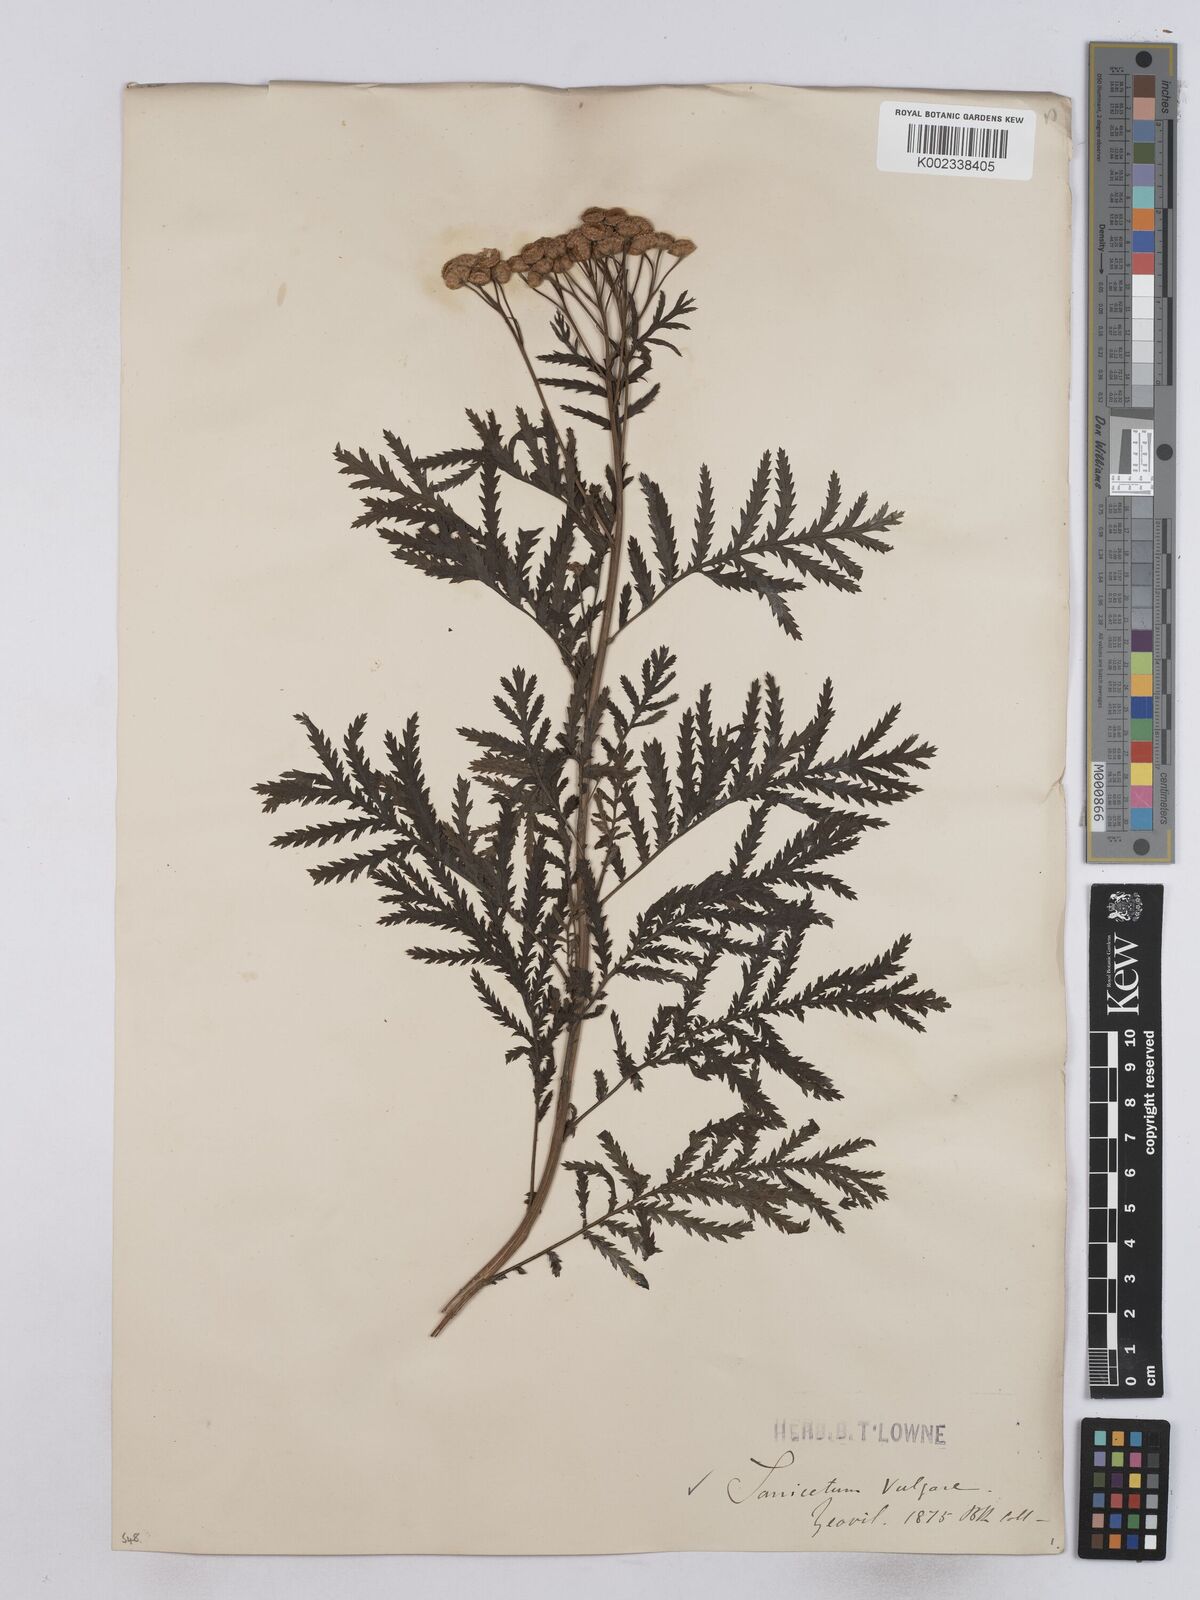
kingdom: Plantae
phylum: Tracheophyta
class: Magnoliopsida
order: Asterales
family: Asteraceae
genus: Tanacetum
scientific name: Tanacetum vulgare
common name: Common tansy
